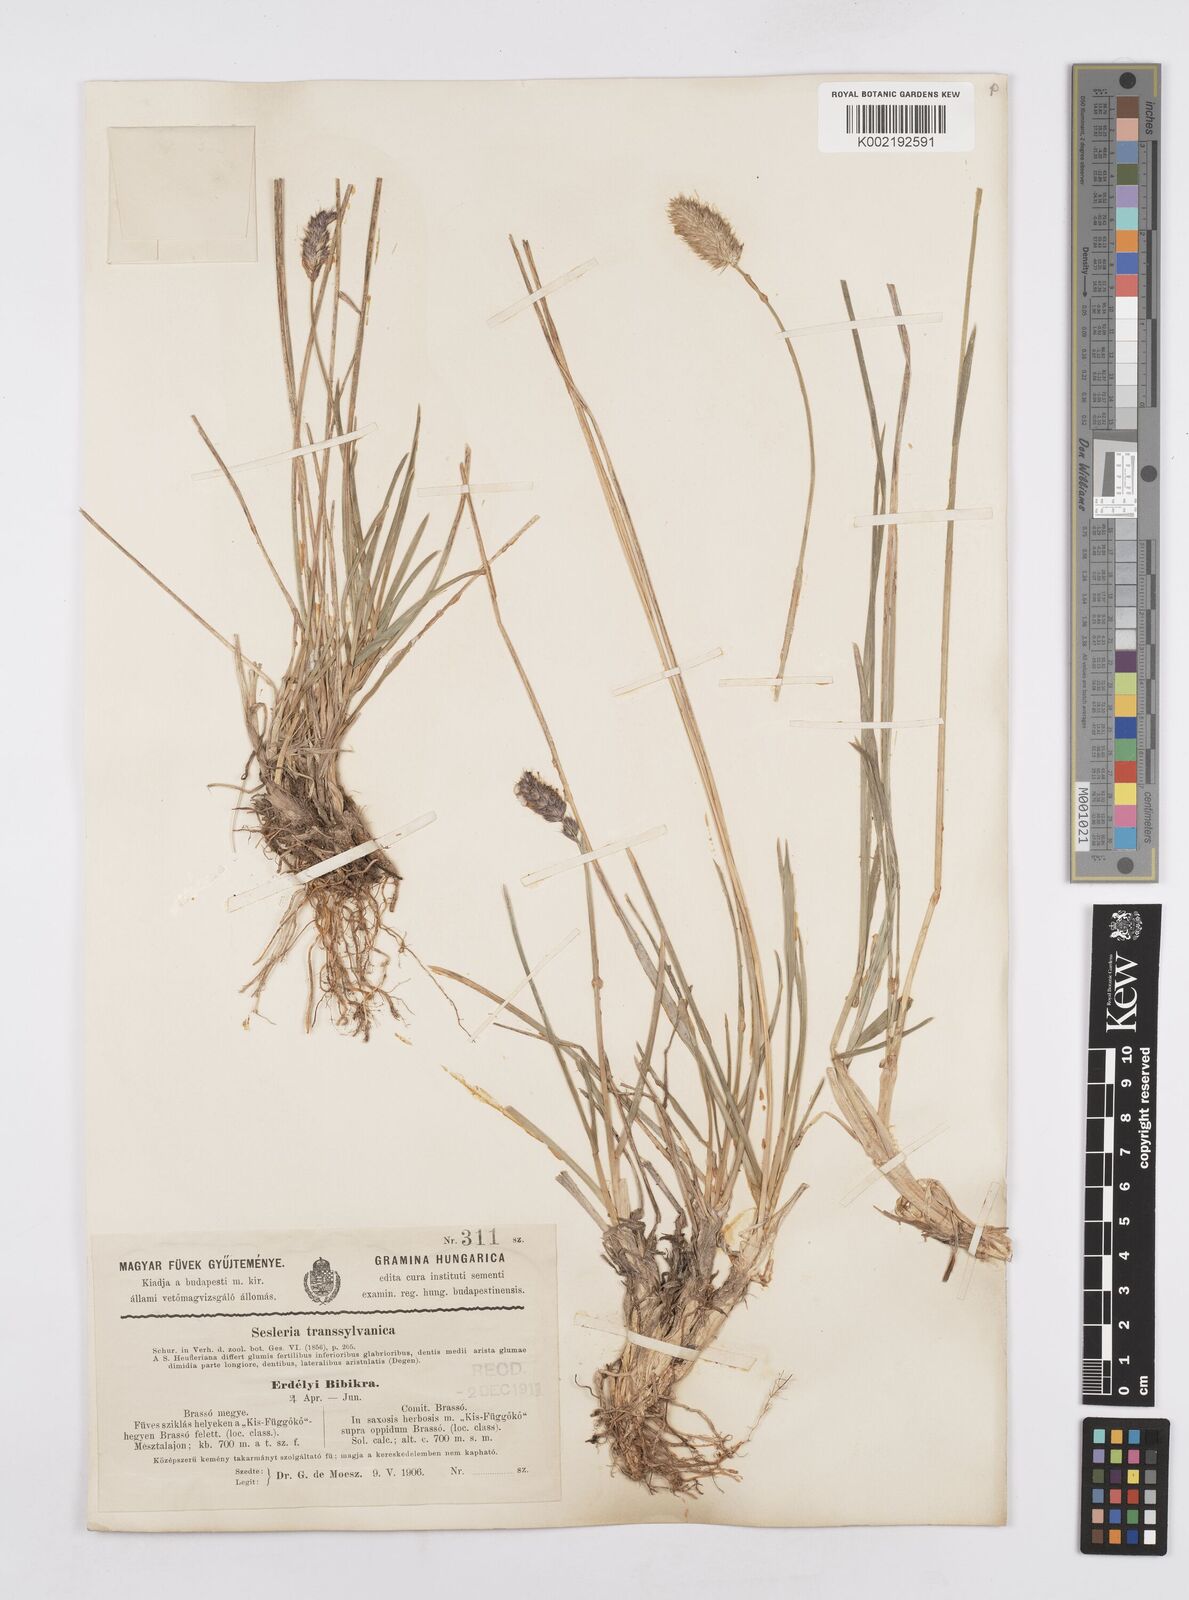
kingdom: Plantae
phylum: Tracheophyta
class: Liliopsida
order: Poales
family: Poaceae
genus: Sesleria
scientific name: Sesleria heufleriana
